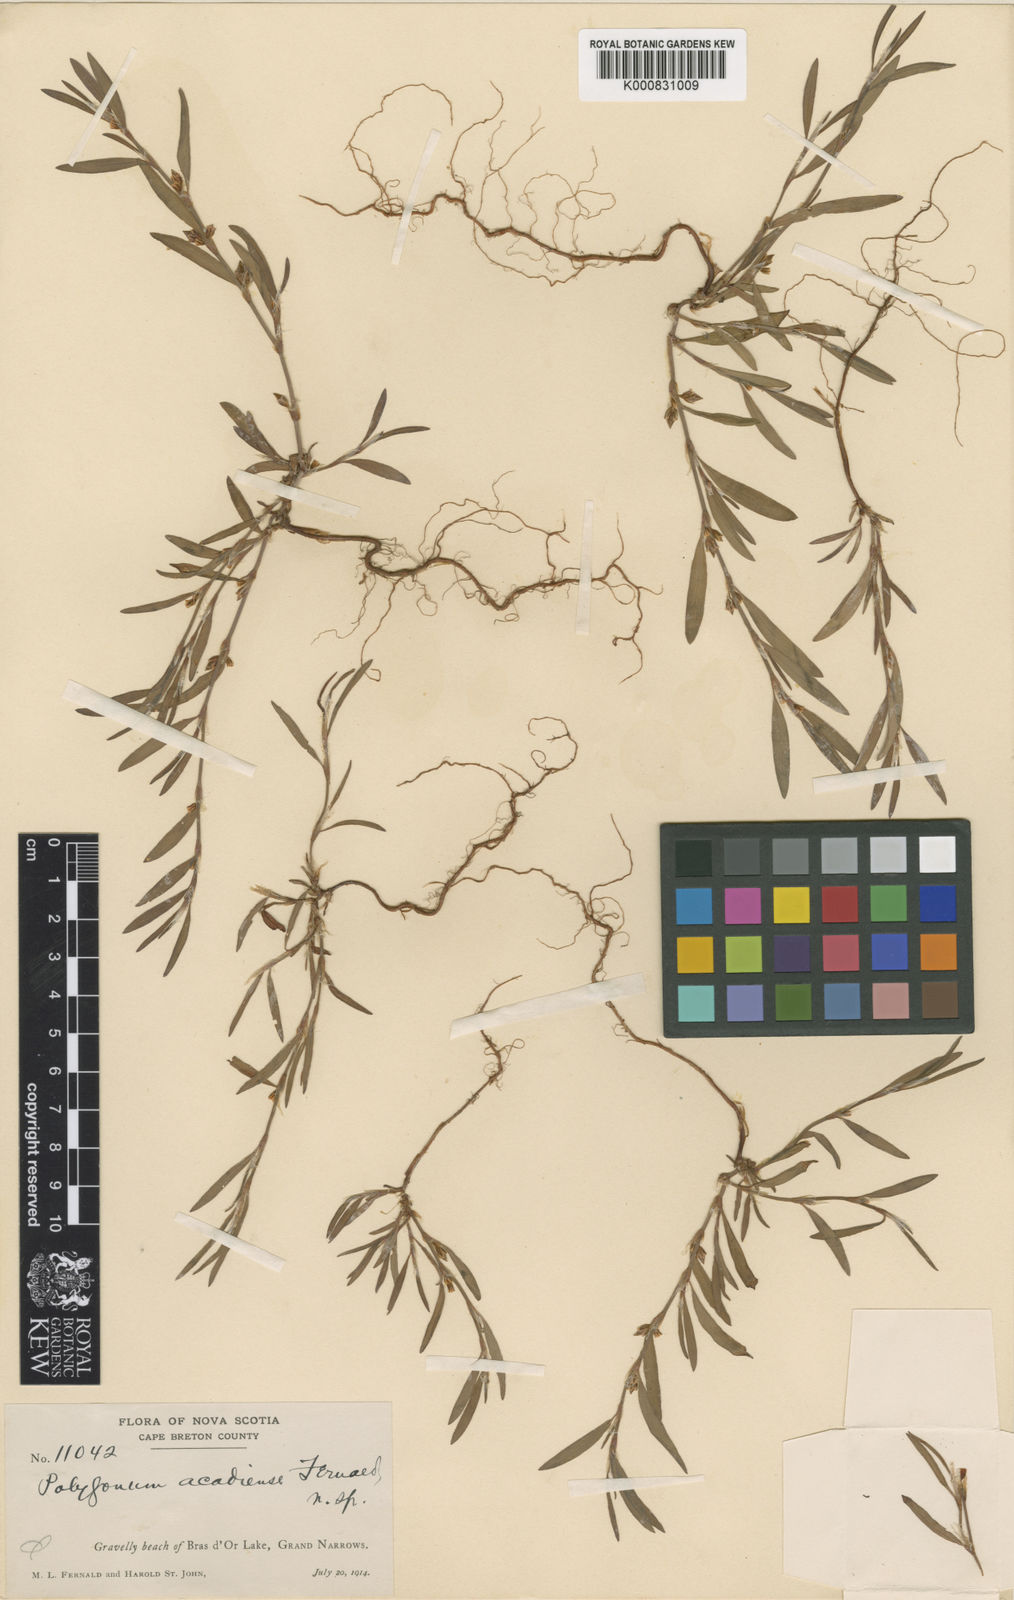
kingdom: Plantae
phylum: Tracheophyta
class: Magnoliopsida
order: Caryophyllales
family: Polygonaceae
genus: Polygonum
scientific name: Polygonum oxyspermum
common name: Ray's knotgrass
